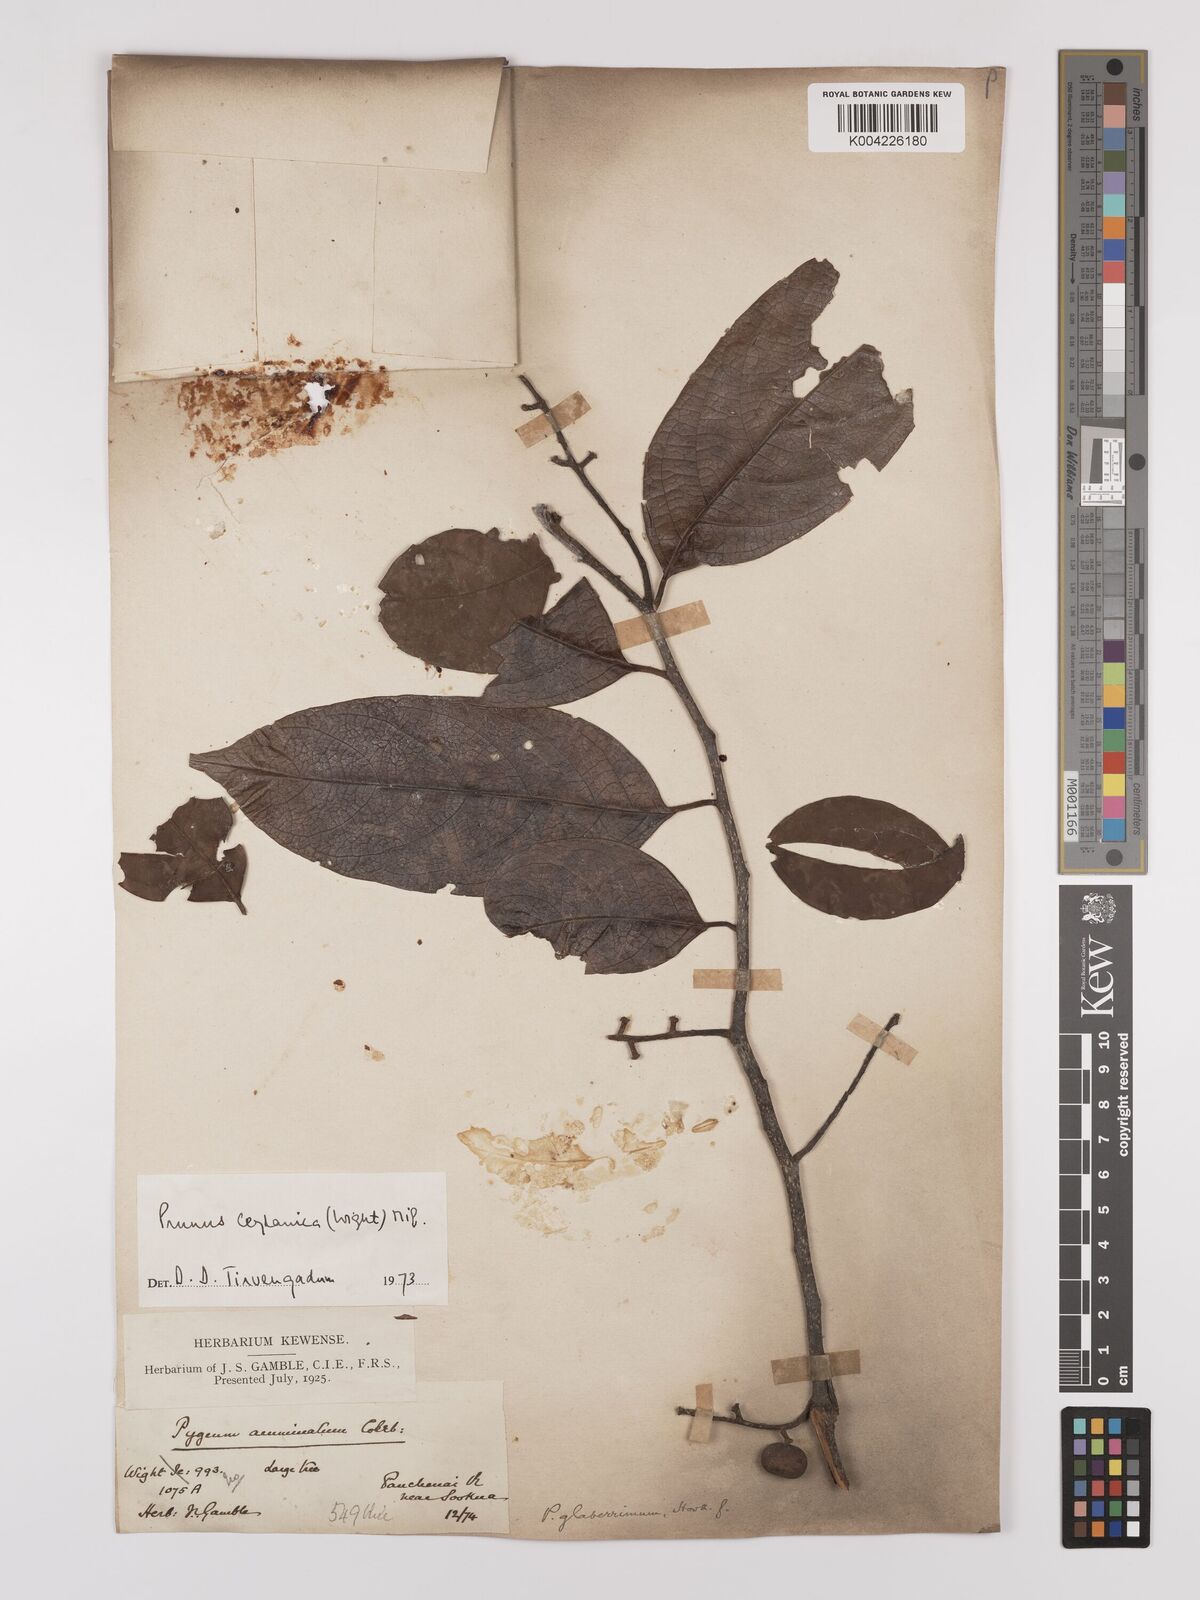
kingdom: Plantae
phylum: Tracheophyta
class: Magnoliopsida
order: Rosales
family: Rosaceae
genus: Prunus
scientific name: Prunus ceylanica
